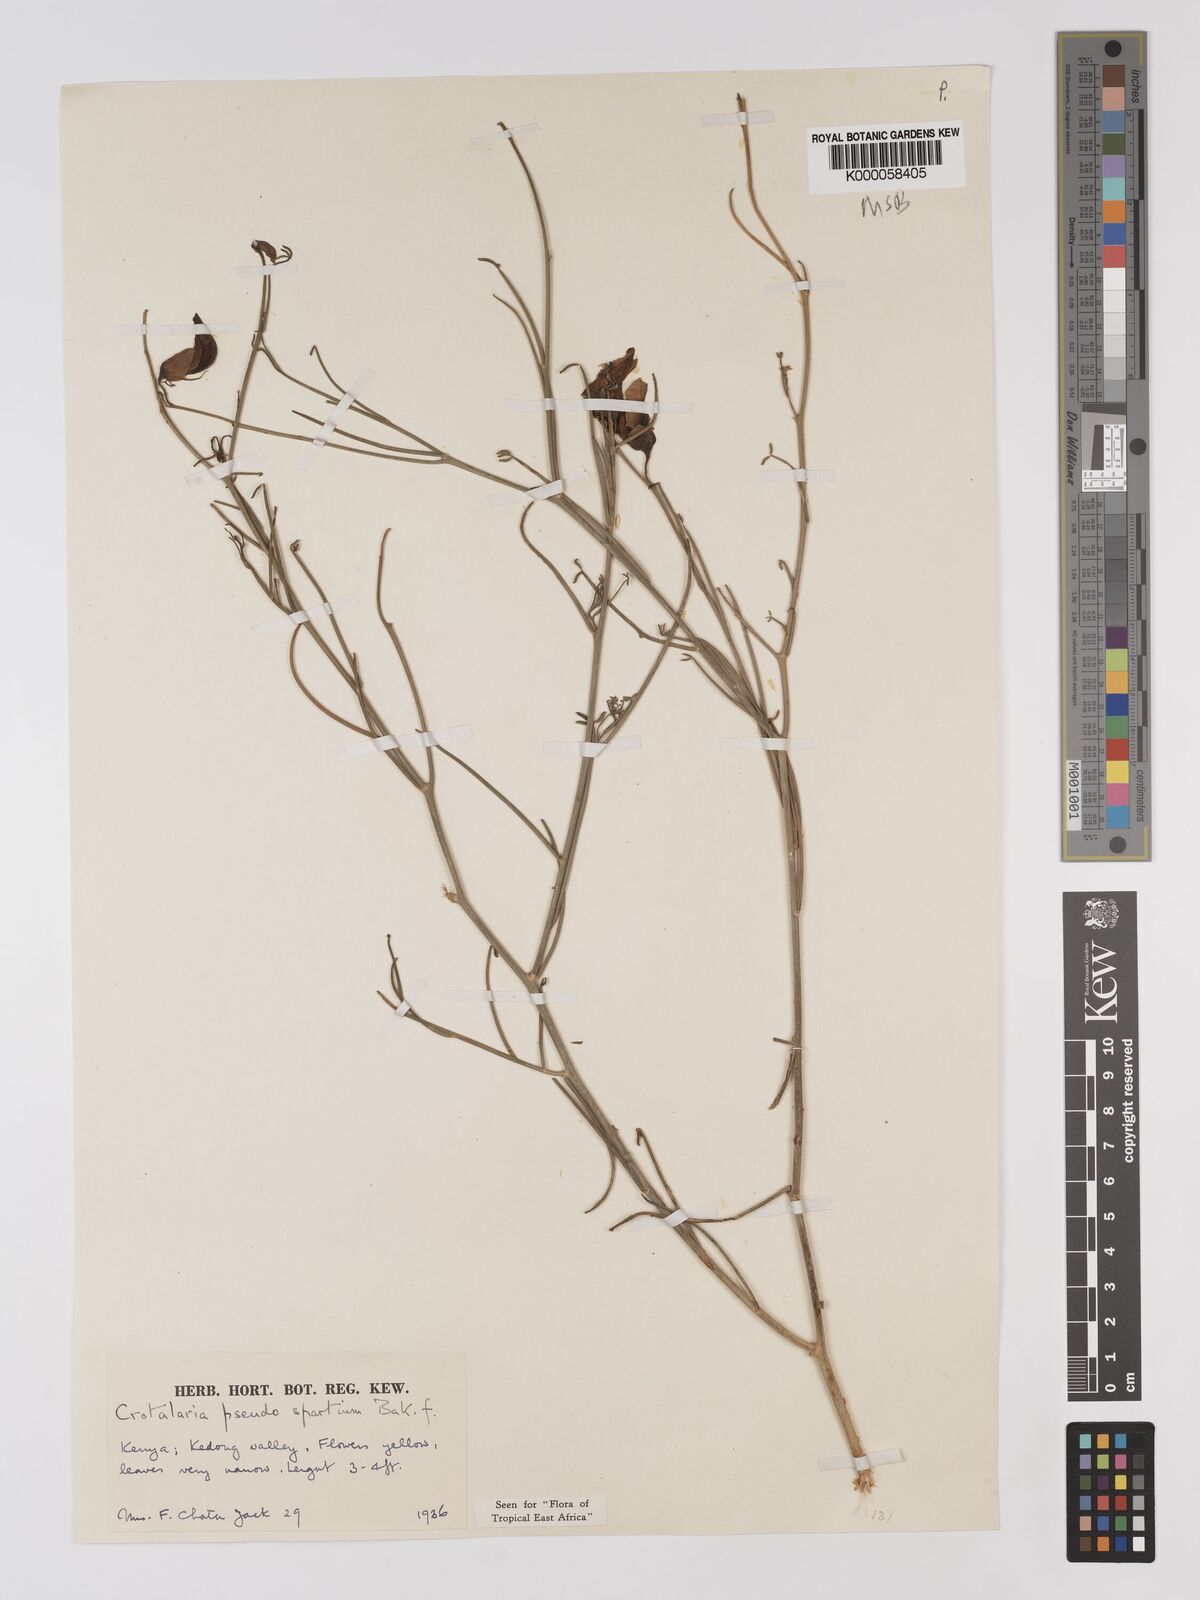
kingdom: Plantae
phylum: Tracheophyta
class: Magnoliopsida
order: Fabales
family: Fabaceae
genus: Crotalaria
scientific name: Crotalaria pseudospartium
